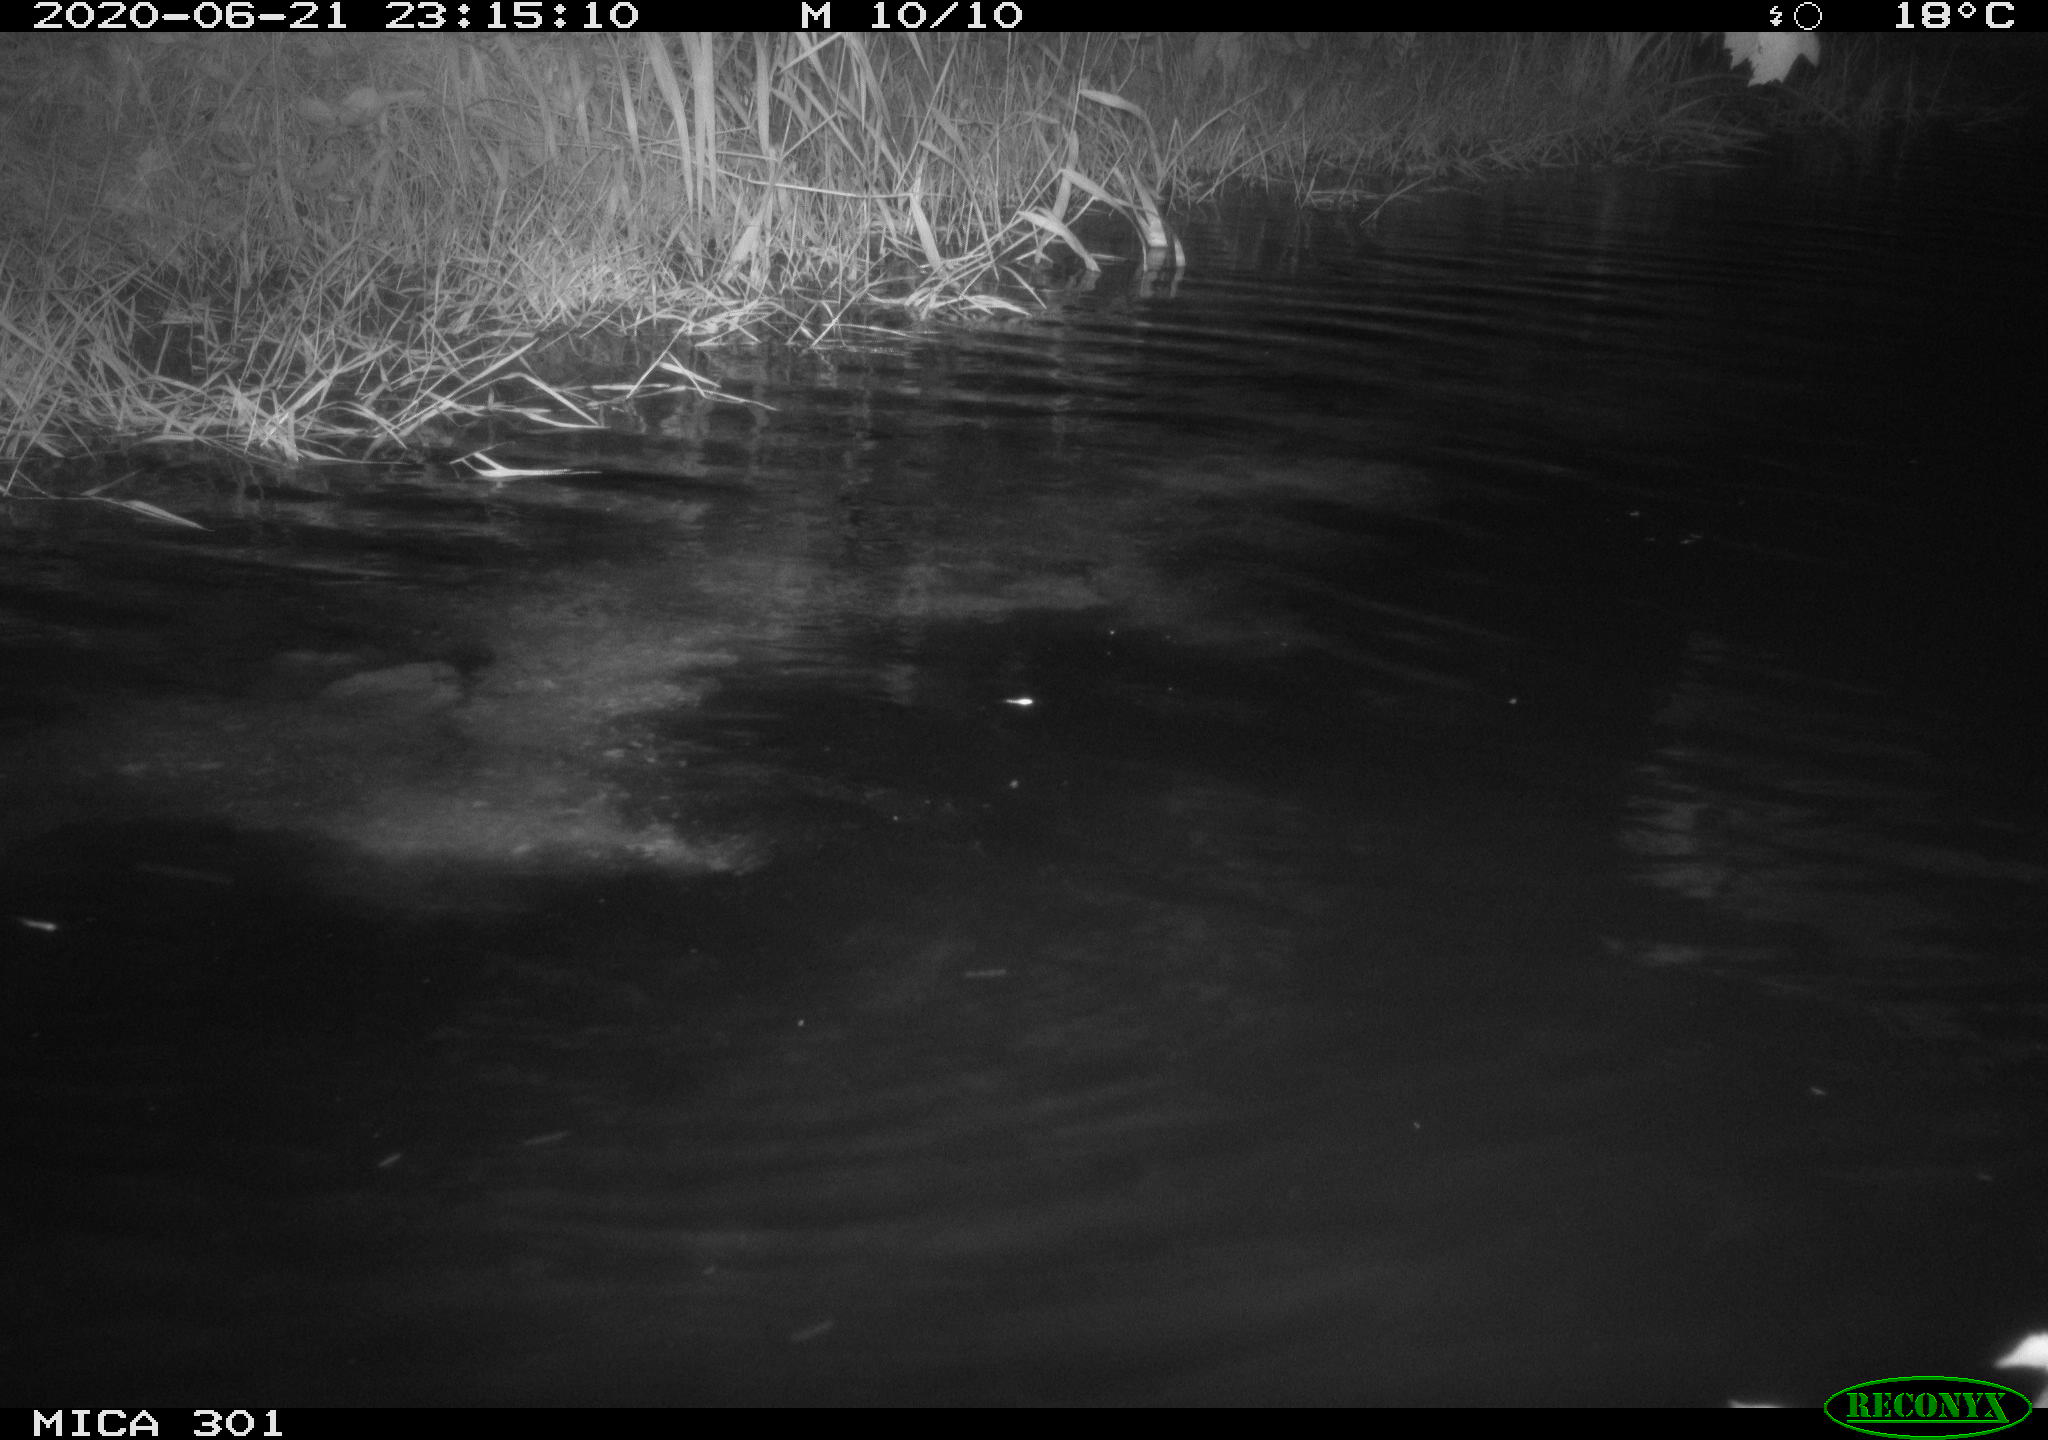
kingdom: Animalia
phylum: Chordata
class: Mammalia
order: Rodentia
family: Castoridae
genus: Castor
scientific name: Castor fiber
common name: Eurasian beaver
